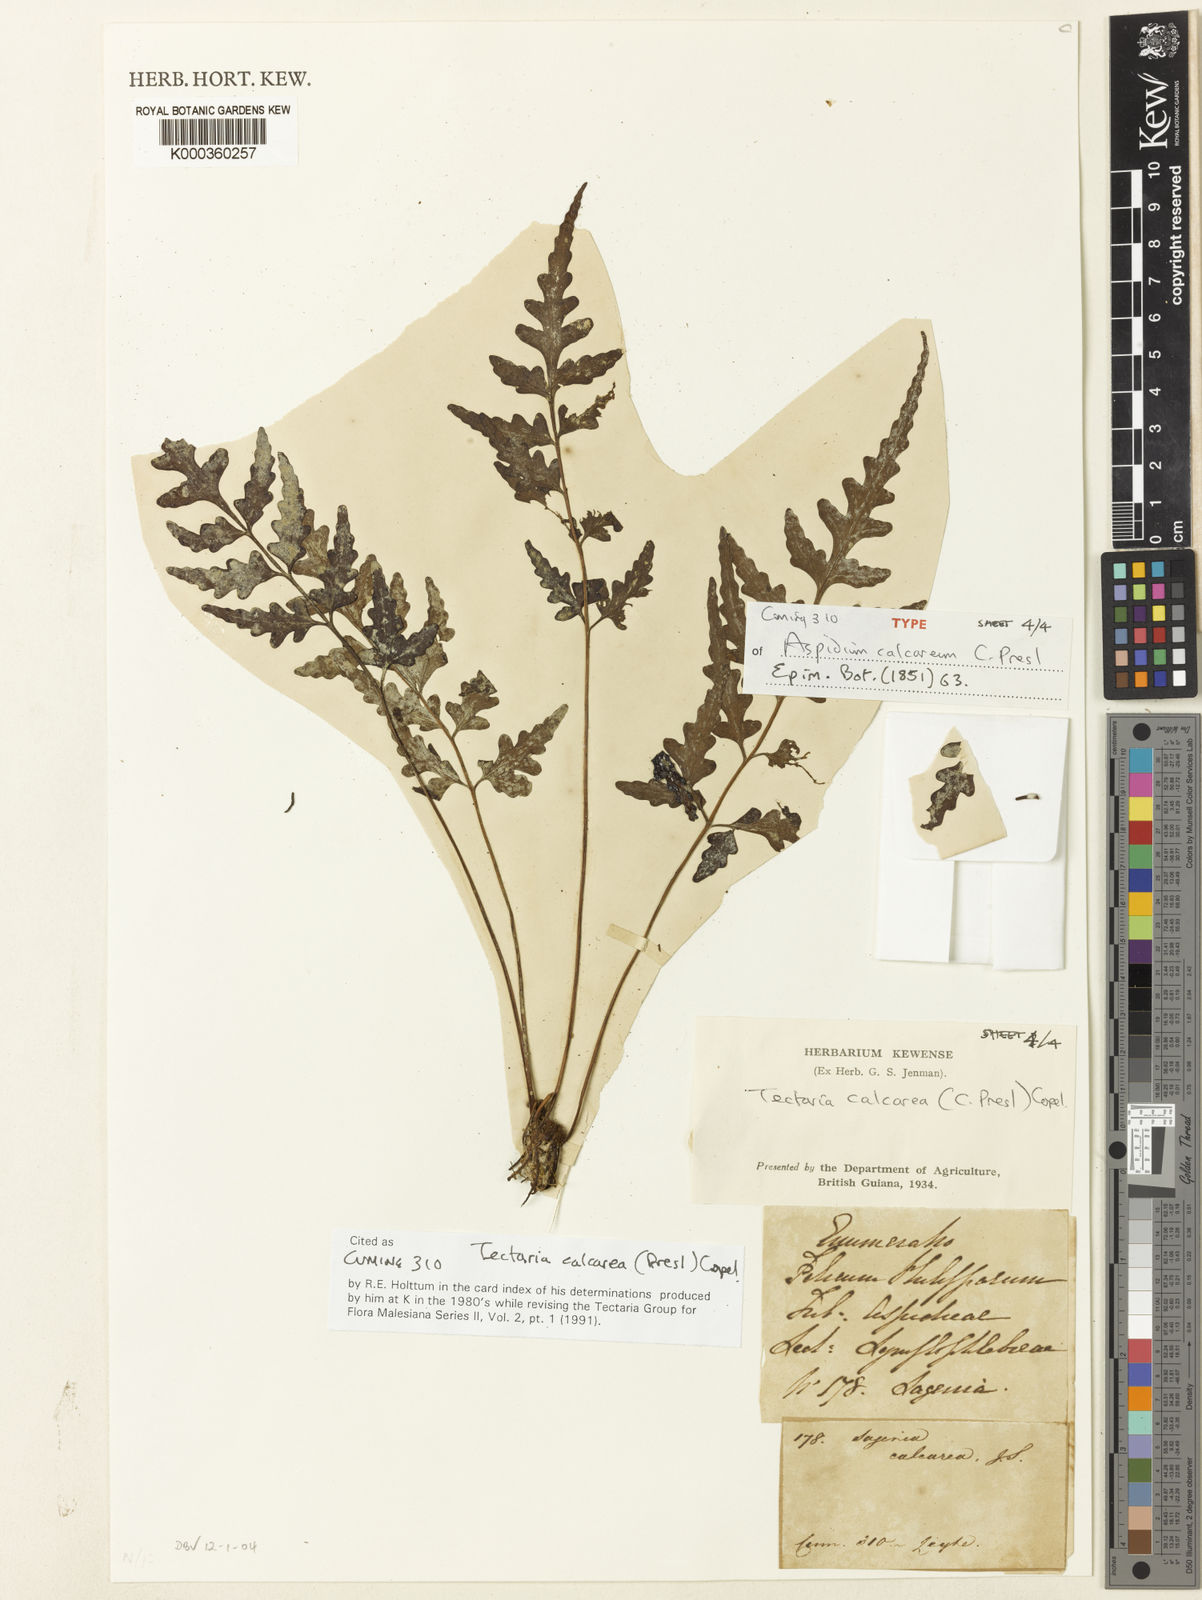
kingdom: Plantae
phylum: Tracheophyta
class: Polypodiopsida
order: Polypodiales
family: Tectariaceae
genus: Tectaria
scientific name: Tectaria calcarea
